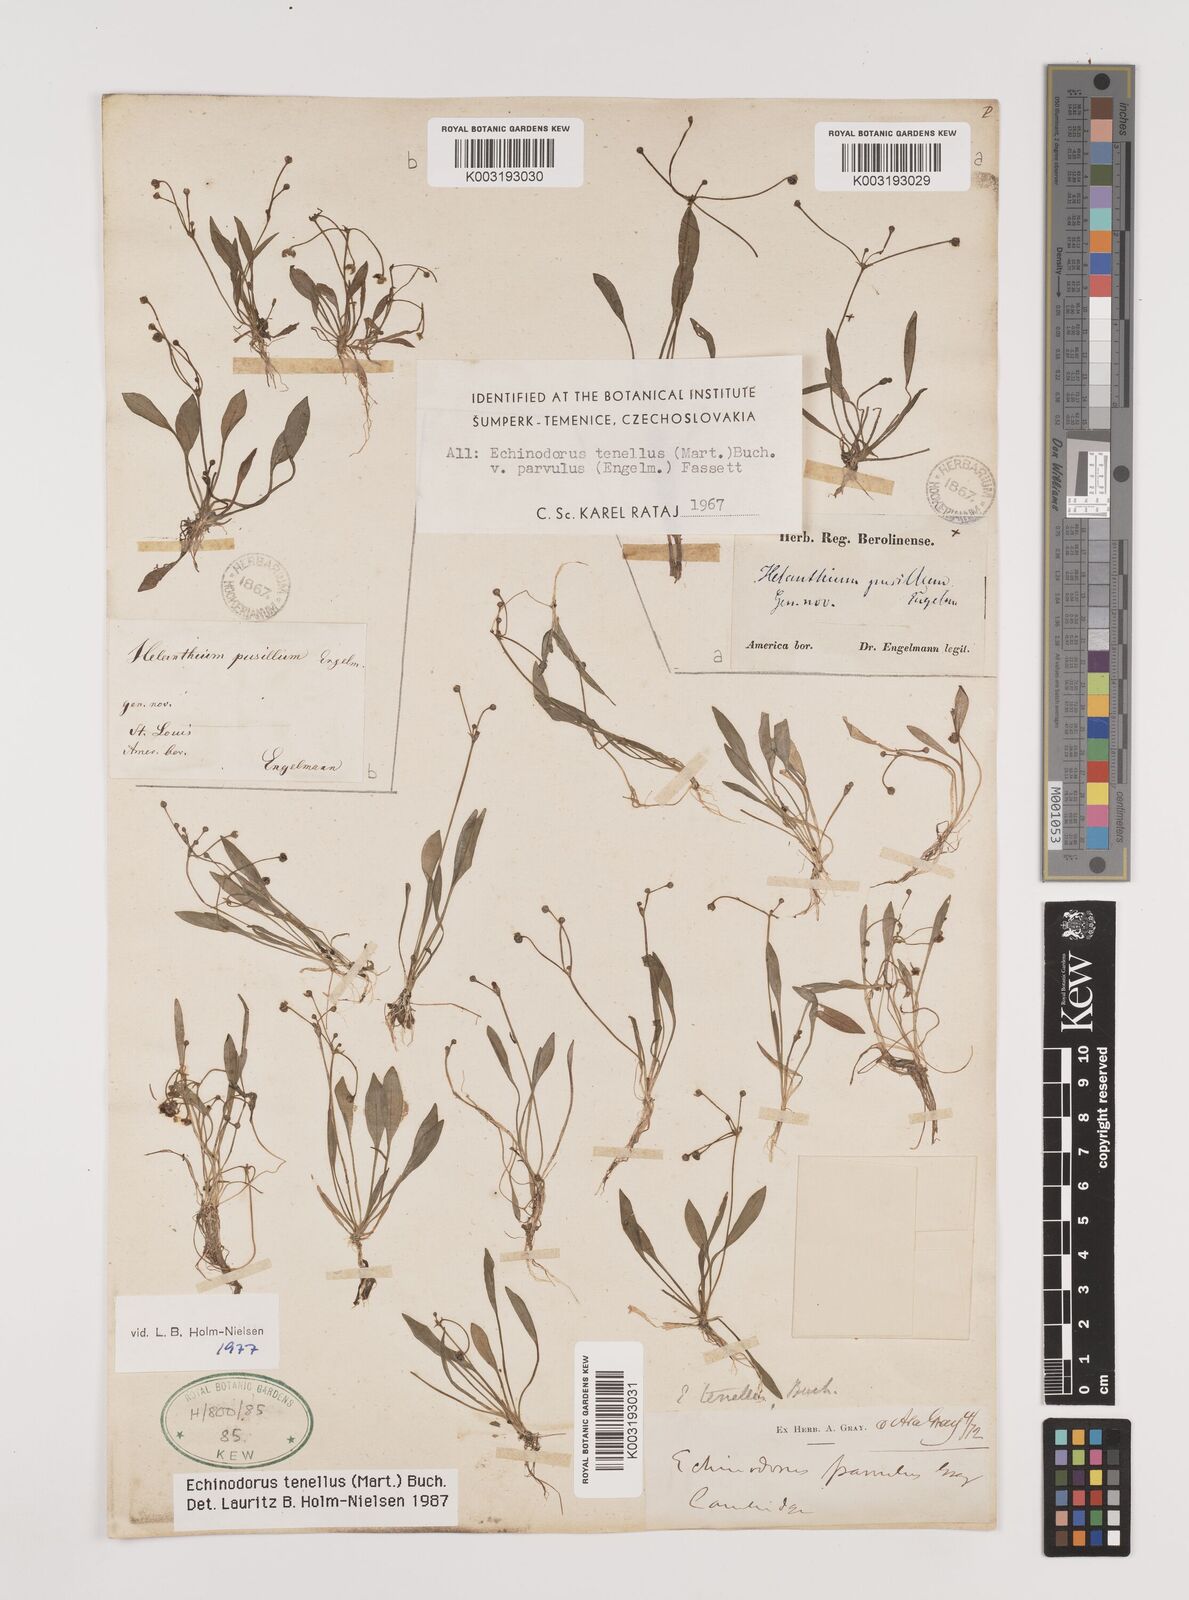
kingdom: Plantae
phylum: Tracheophyta
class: Liliopsida
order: Alismatales
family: Alismataceae
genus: Helanthium
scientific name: Helanthium tenellum
